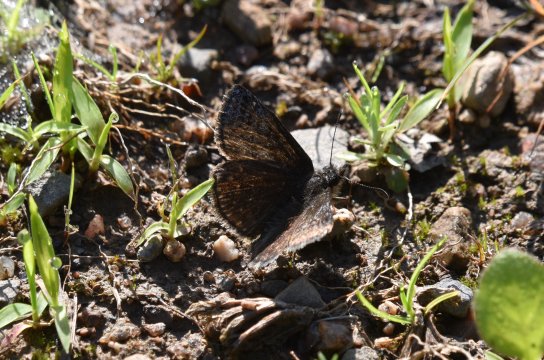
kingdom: Animalia
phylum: Arthropoda
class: Insecta
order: Lepidoptera
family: Hesperiidae
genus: Erynnis
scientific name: Erynnis icelus
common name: Dreamy Duskywing
